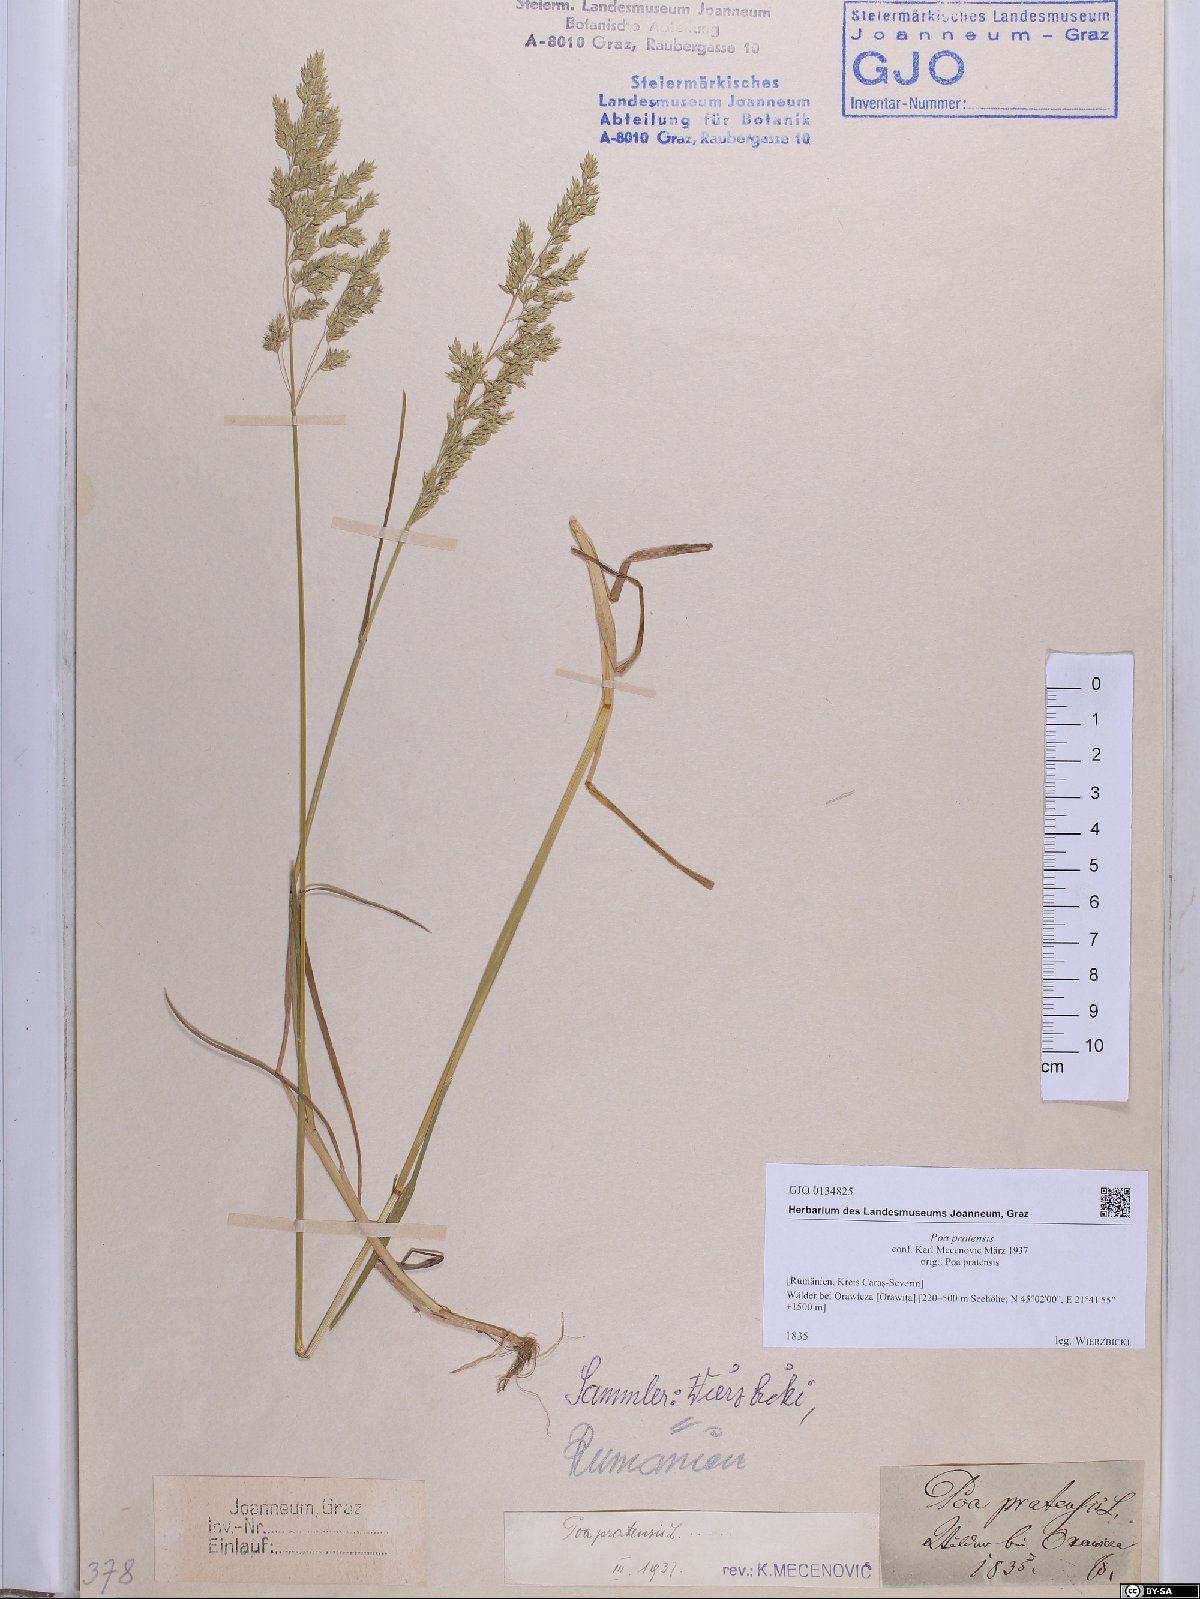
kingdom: Plantae
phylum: Tracheophyta
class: Liliopsida
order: Poales
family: Poaceae
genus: Poa
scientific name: Poa pratensis
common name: Kentucky bluegrass
